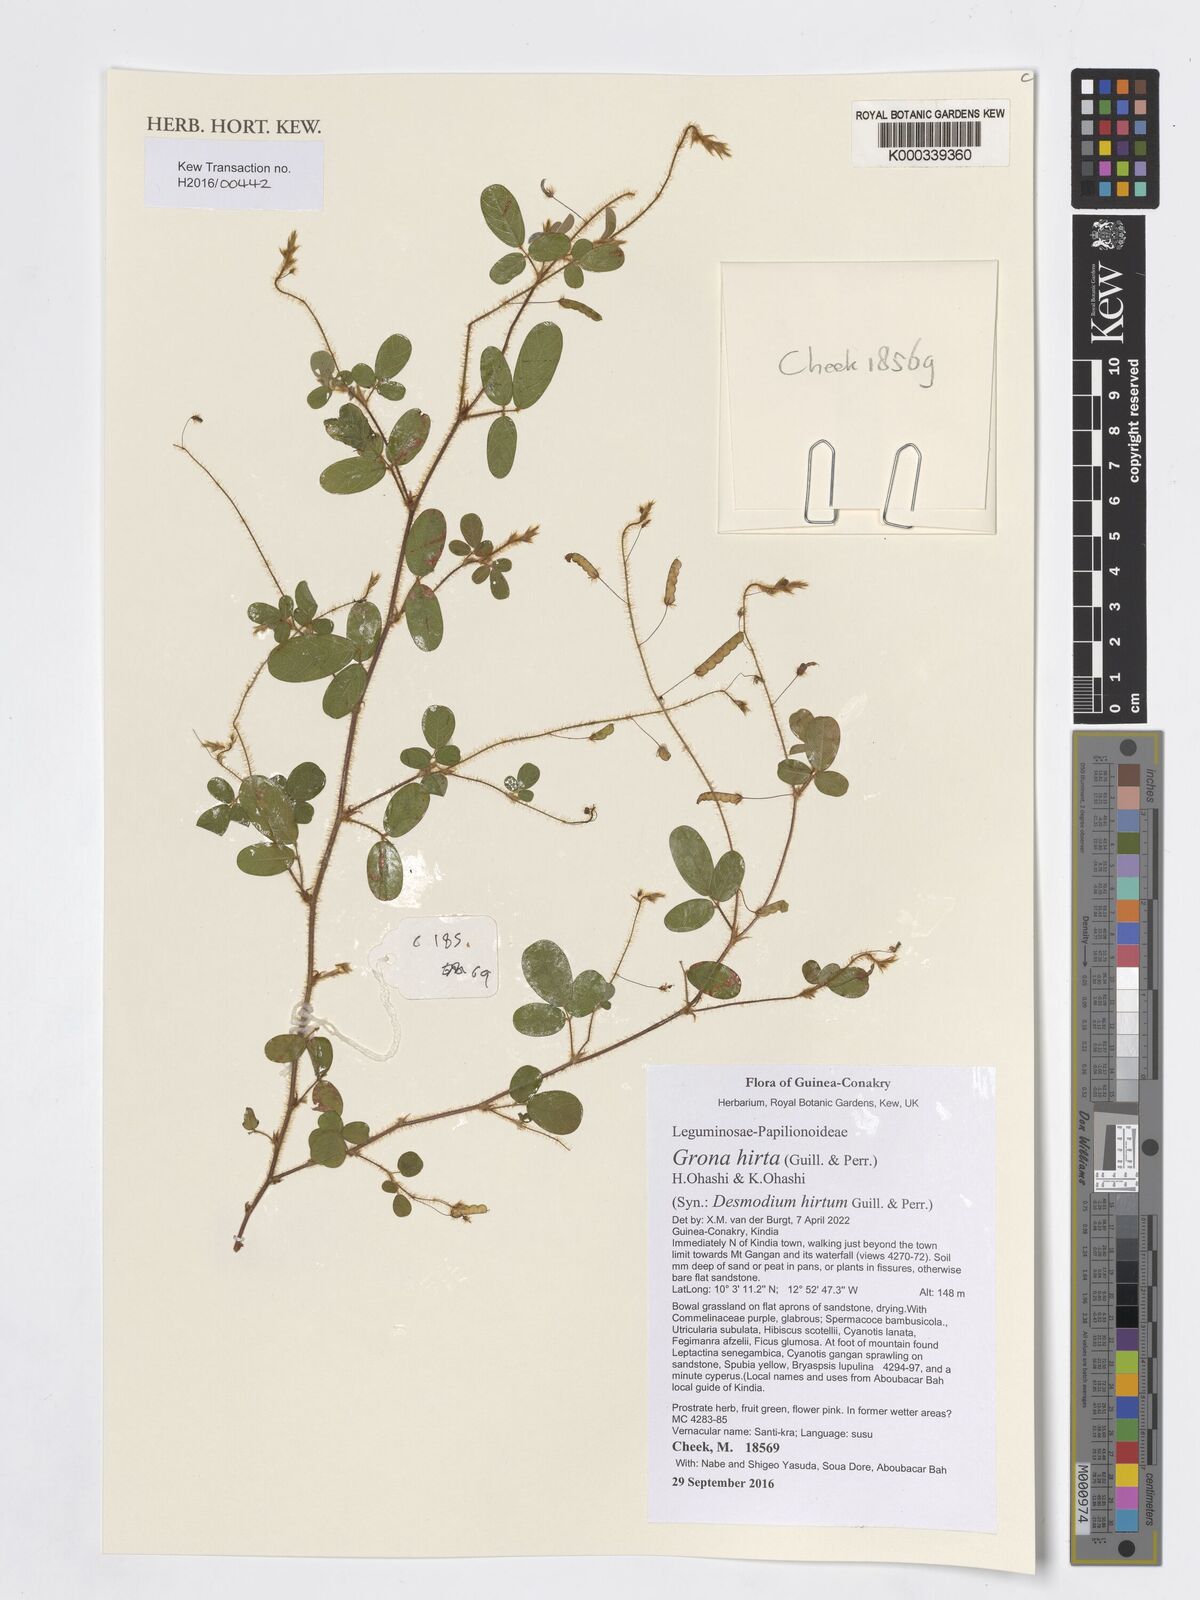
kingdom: Plantae
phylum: Tracheophyta
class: Magnoliopsida
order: Fabales
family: Fabaceae
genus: Grona
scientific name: Grona hirta
